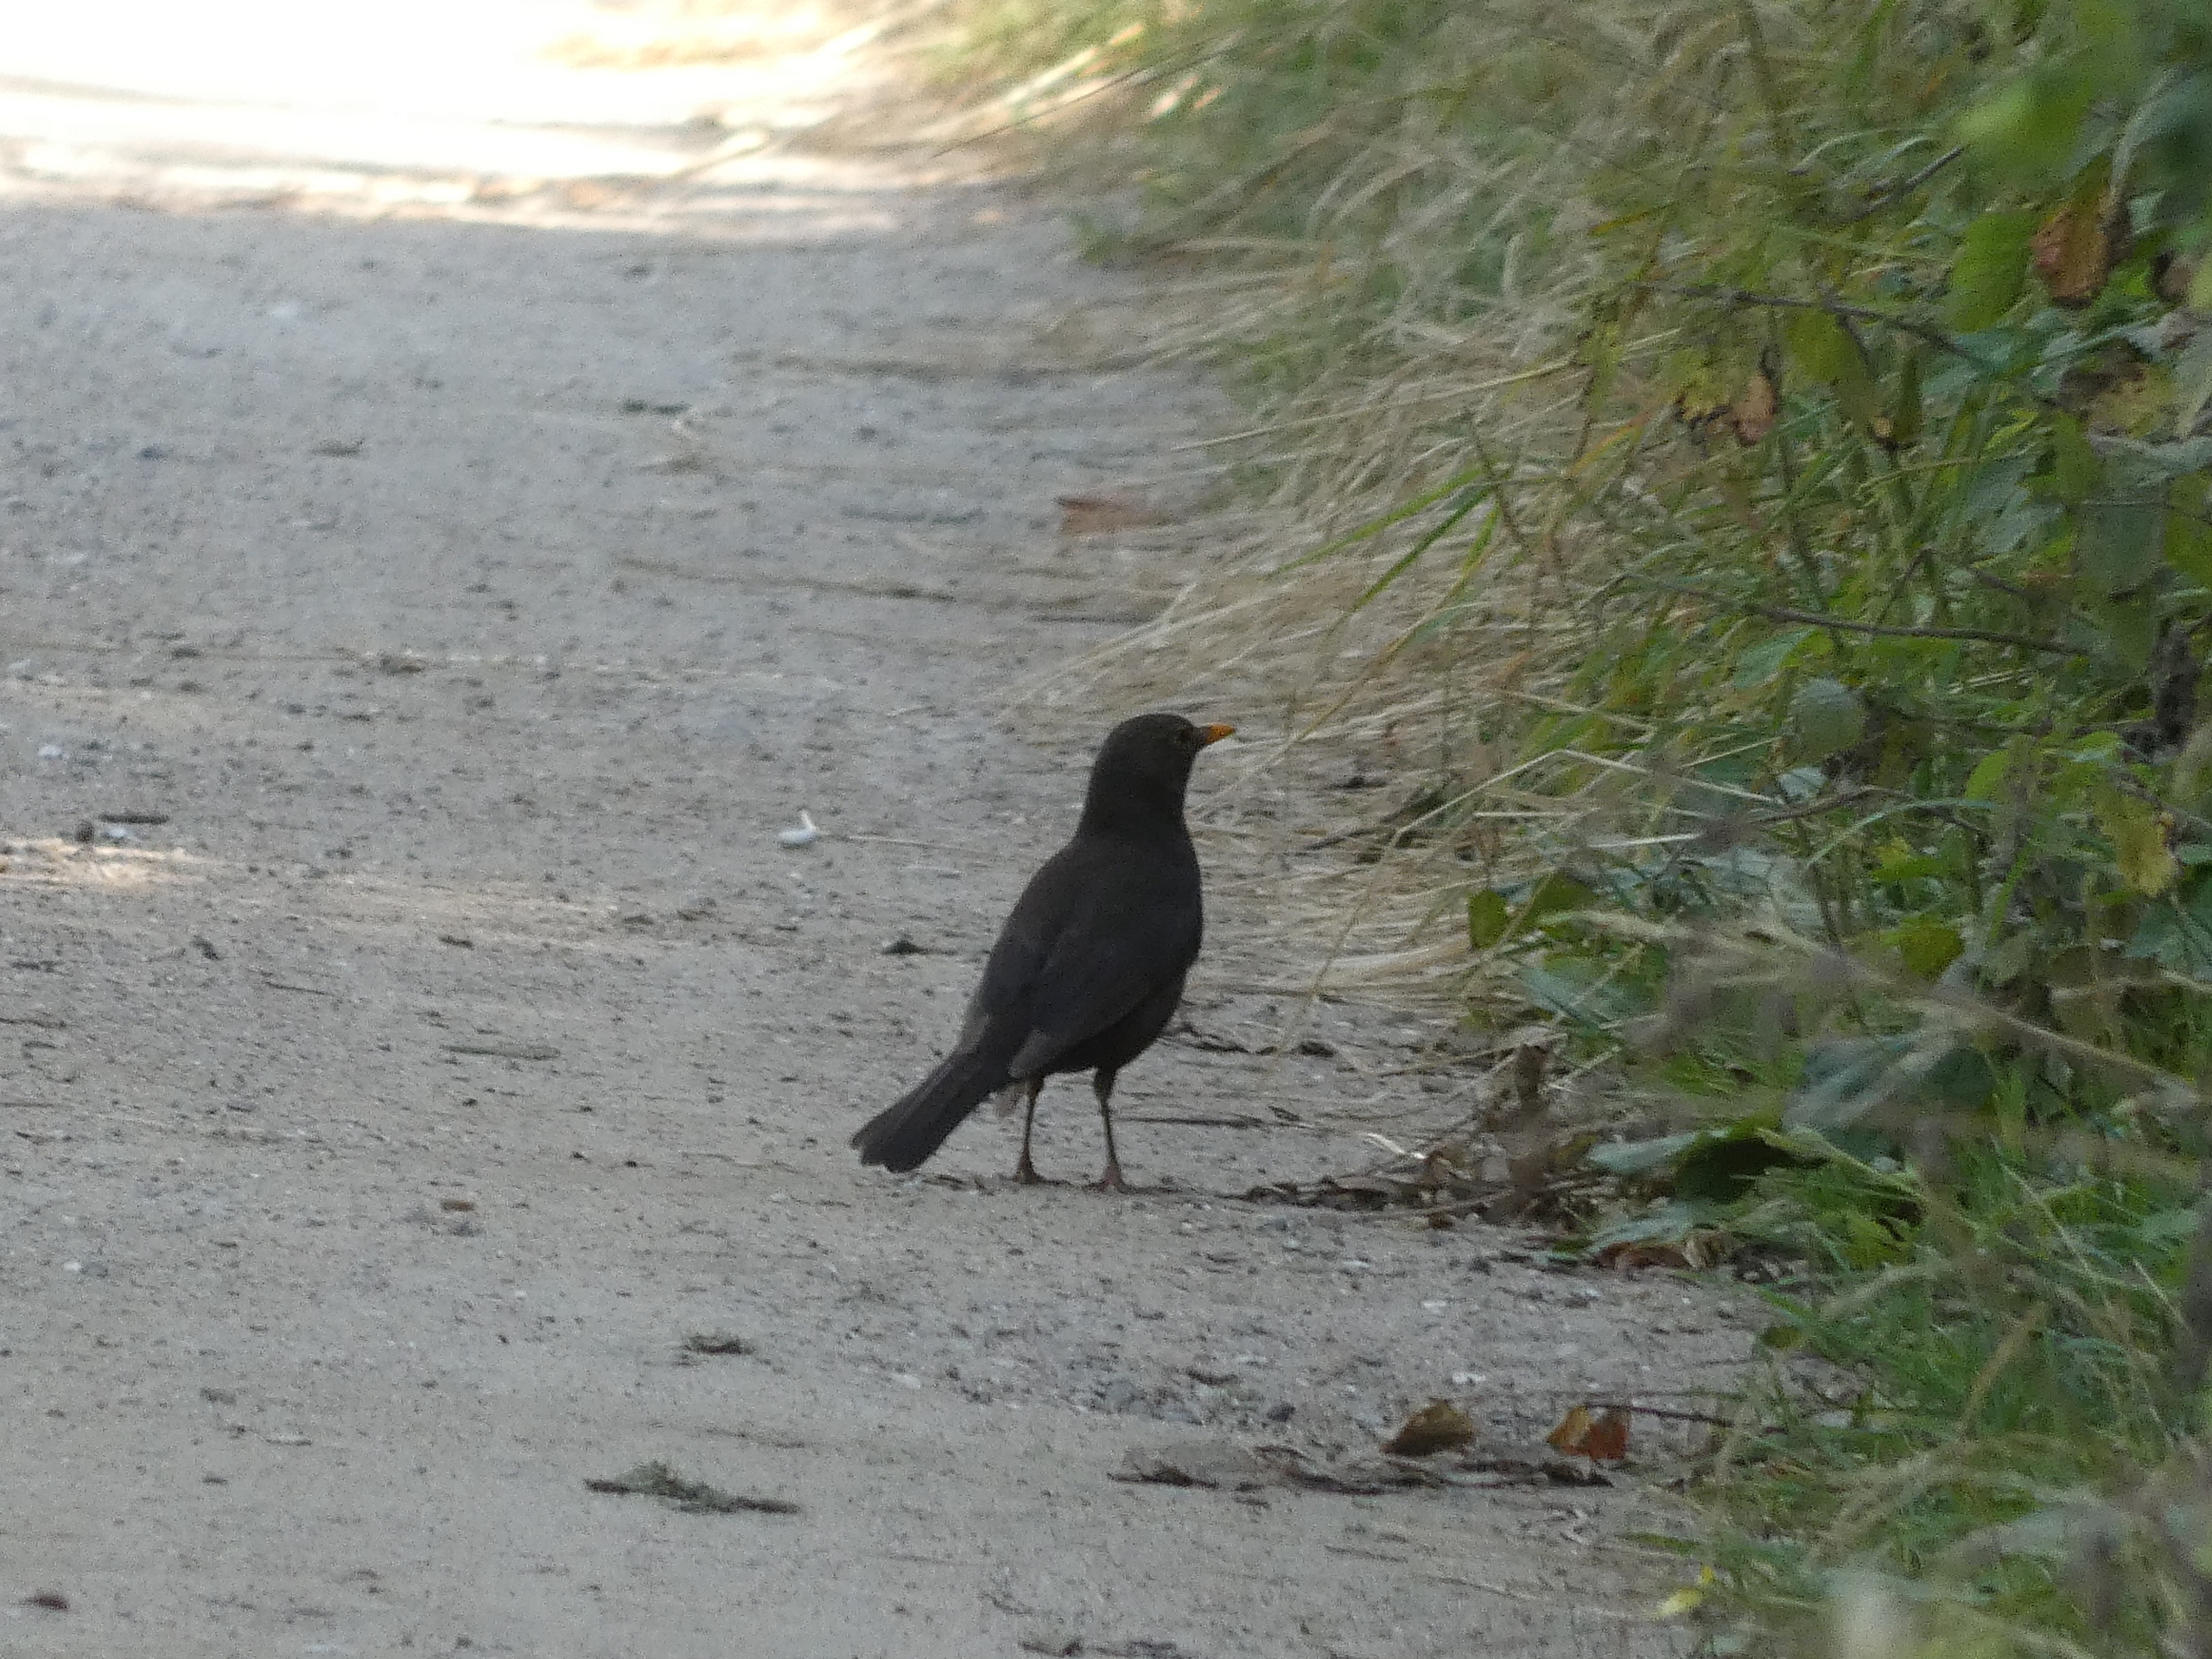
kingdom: Animalia
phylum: Chordata
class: Aves
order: Passeriformes
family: Turdidae
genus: Turdus
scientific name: Turdus merula
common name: Solsort
